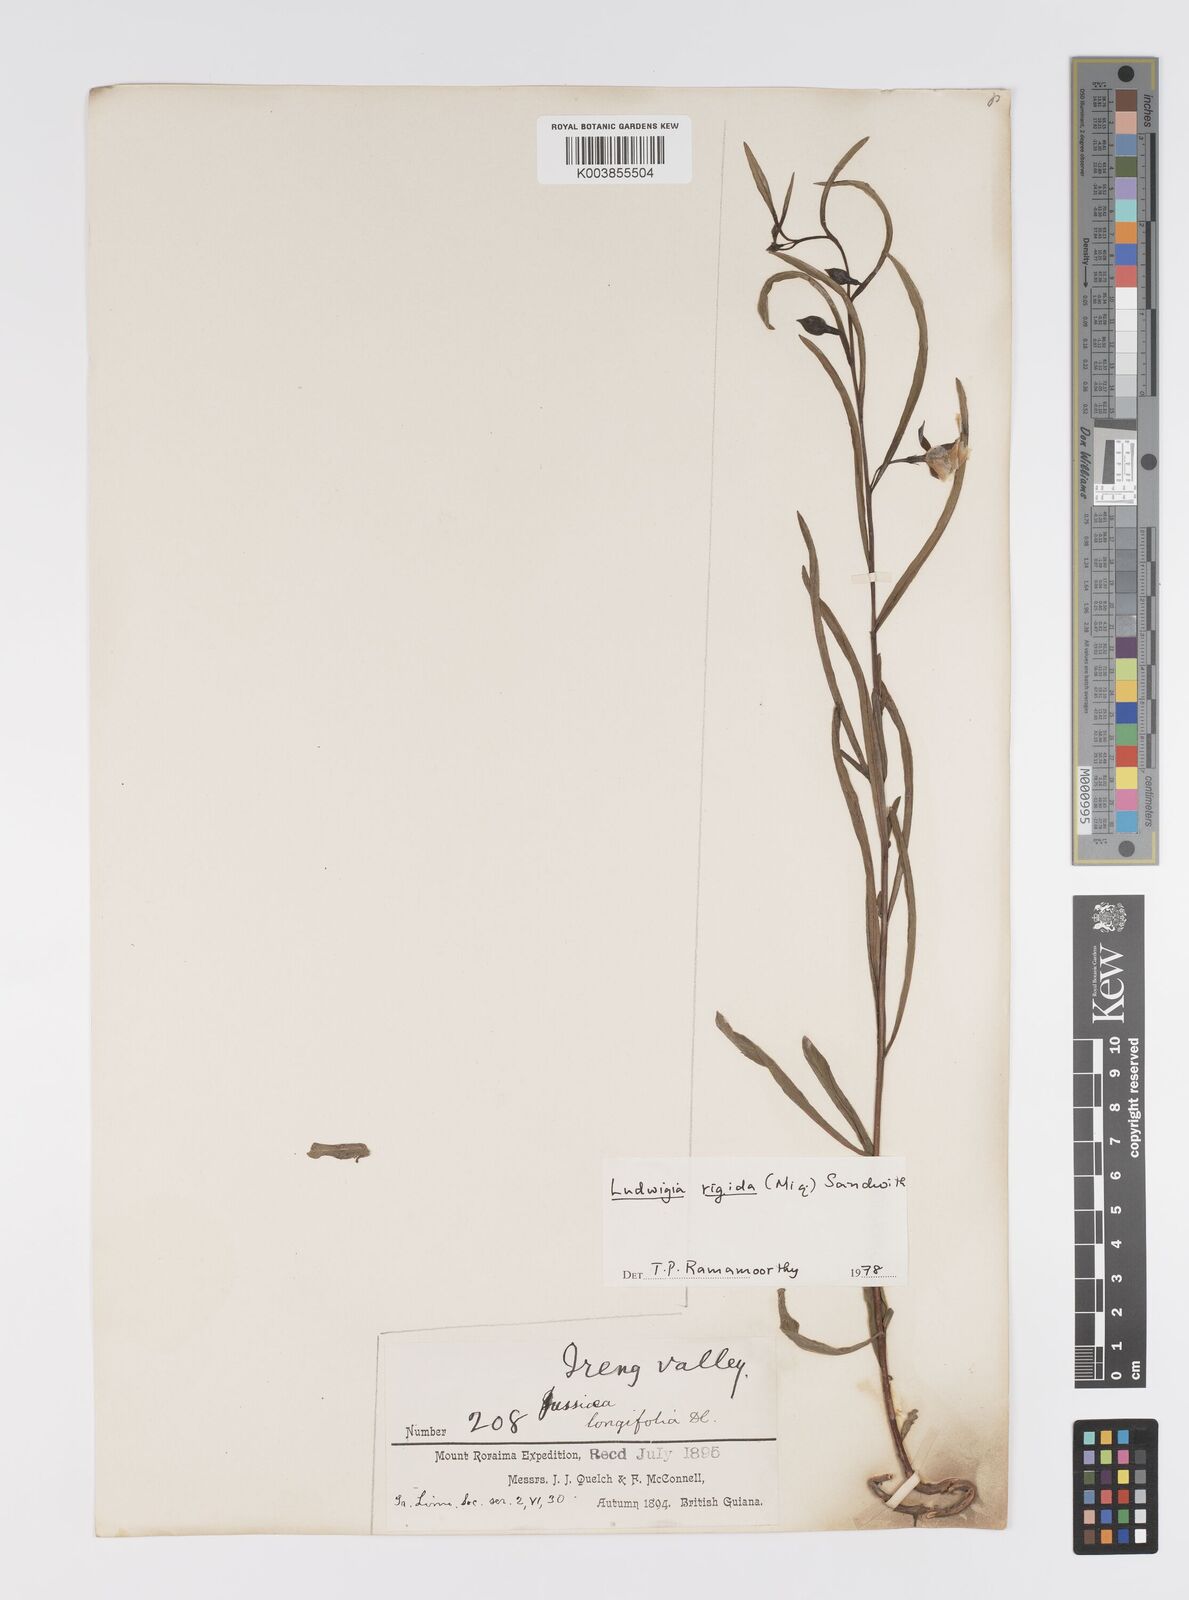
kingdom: Plantae
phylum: Tracheophyta
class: Magnoliopsida
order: Myrtales
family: Onagraceae
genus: Ludwigia
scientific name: Ludwigia rigida
